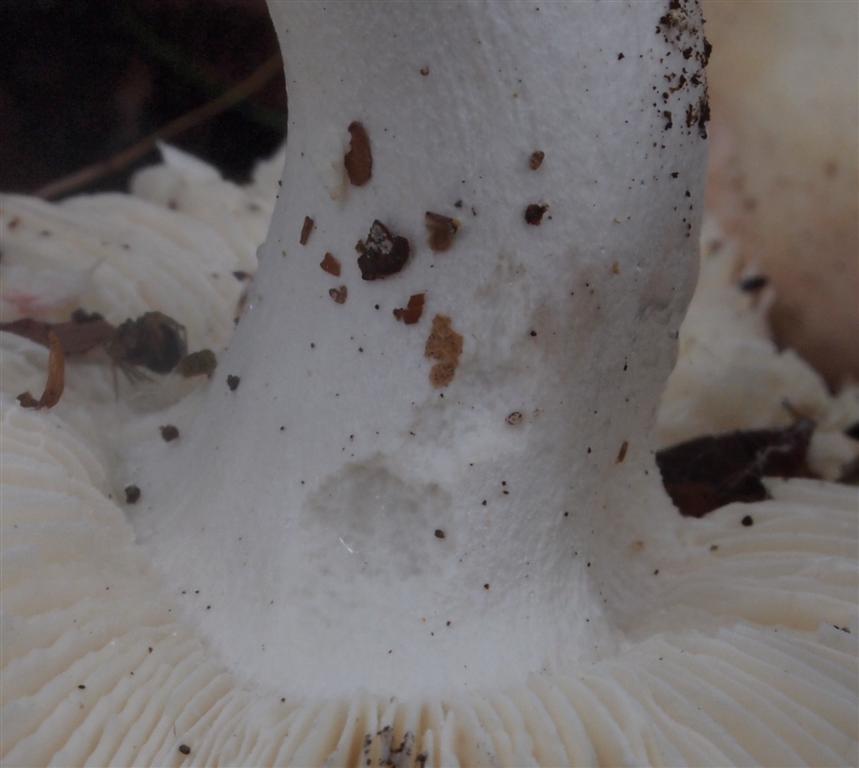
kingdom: Fungi
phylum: Basidiomycota
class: Agaricomycetes
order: Russulales
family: Russulaceae
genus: Russula
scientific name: Russula aurora
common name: rosa skørhat
